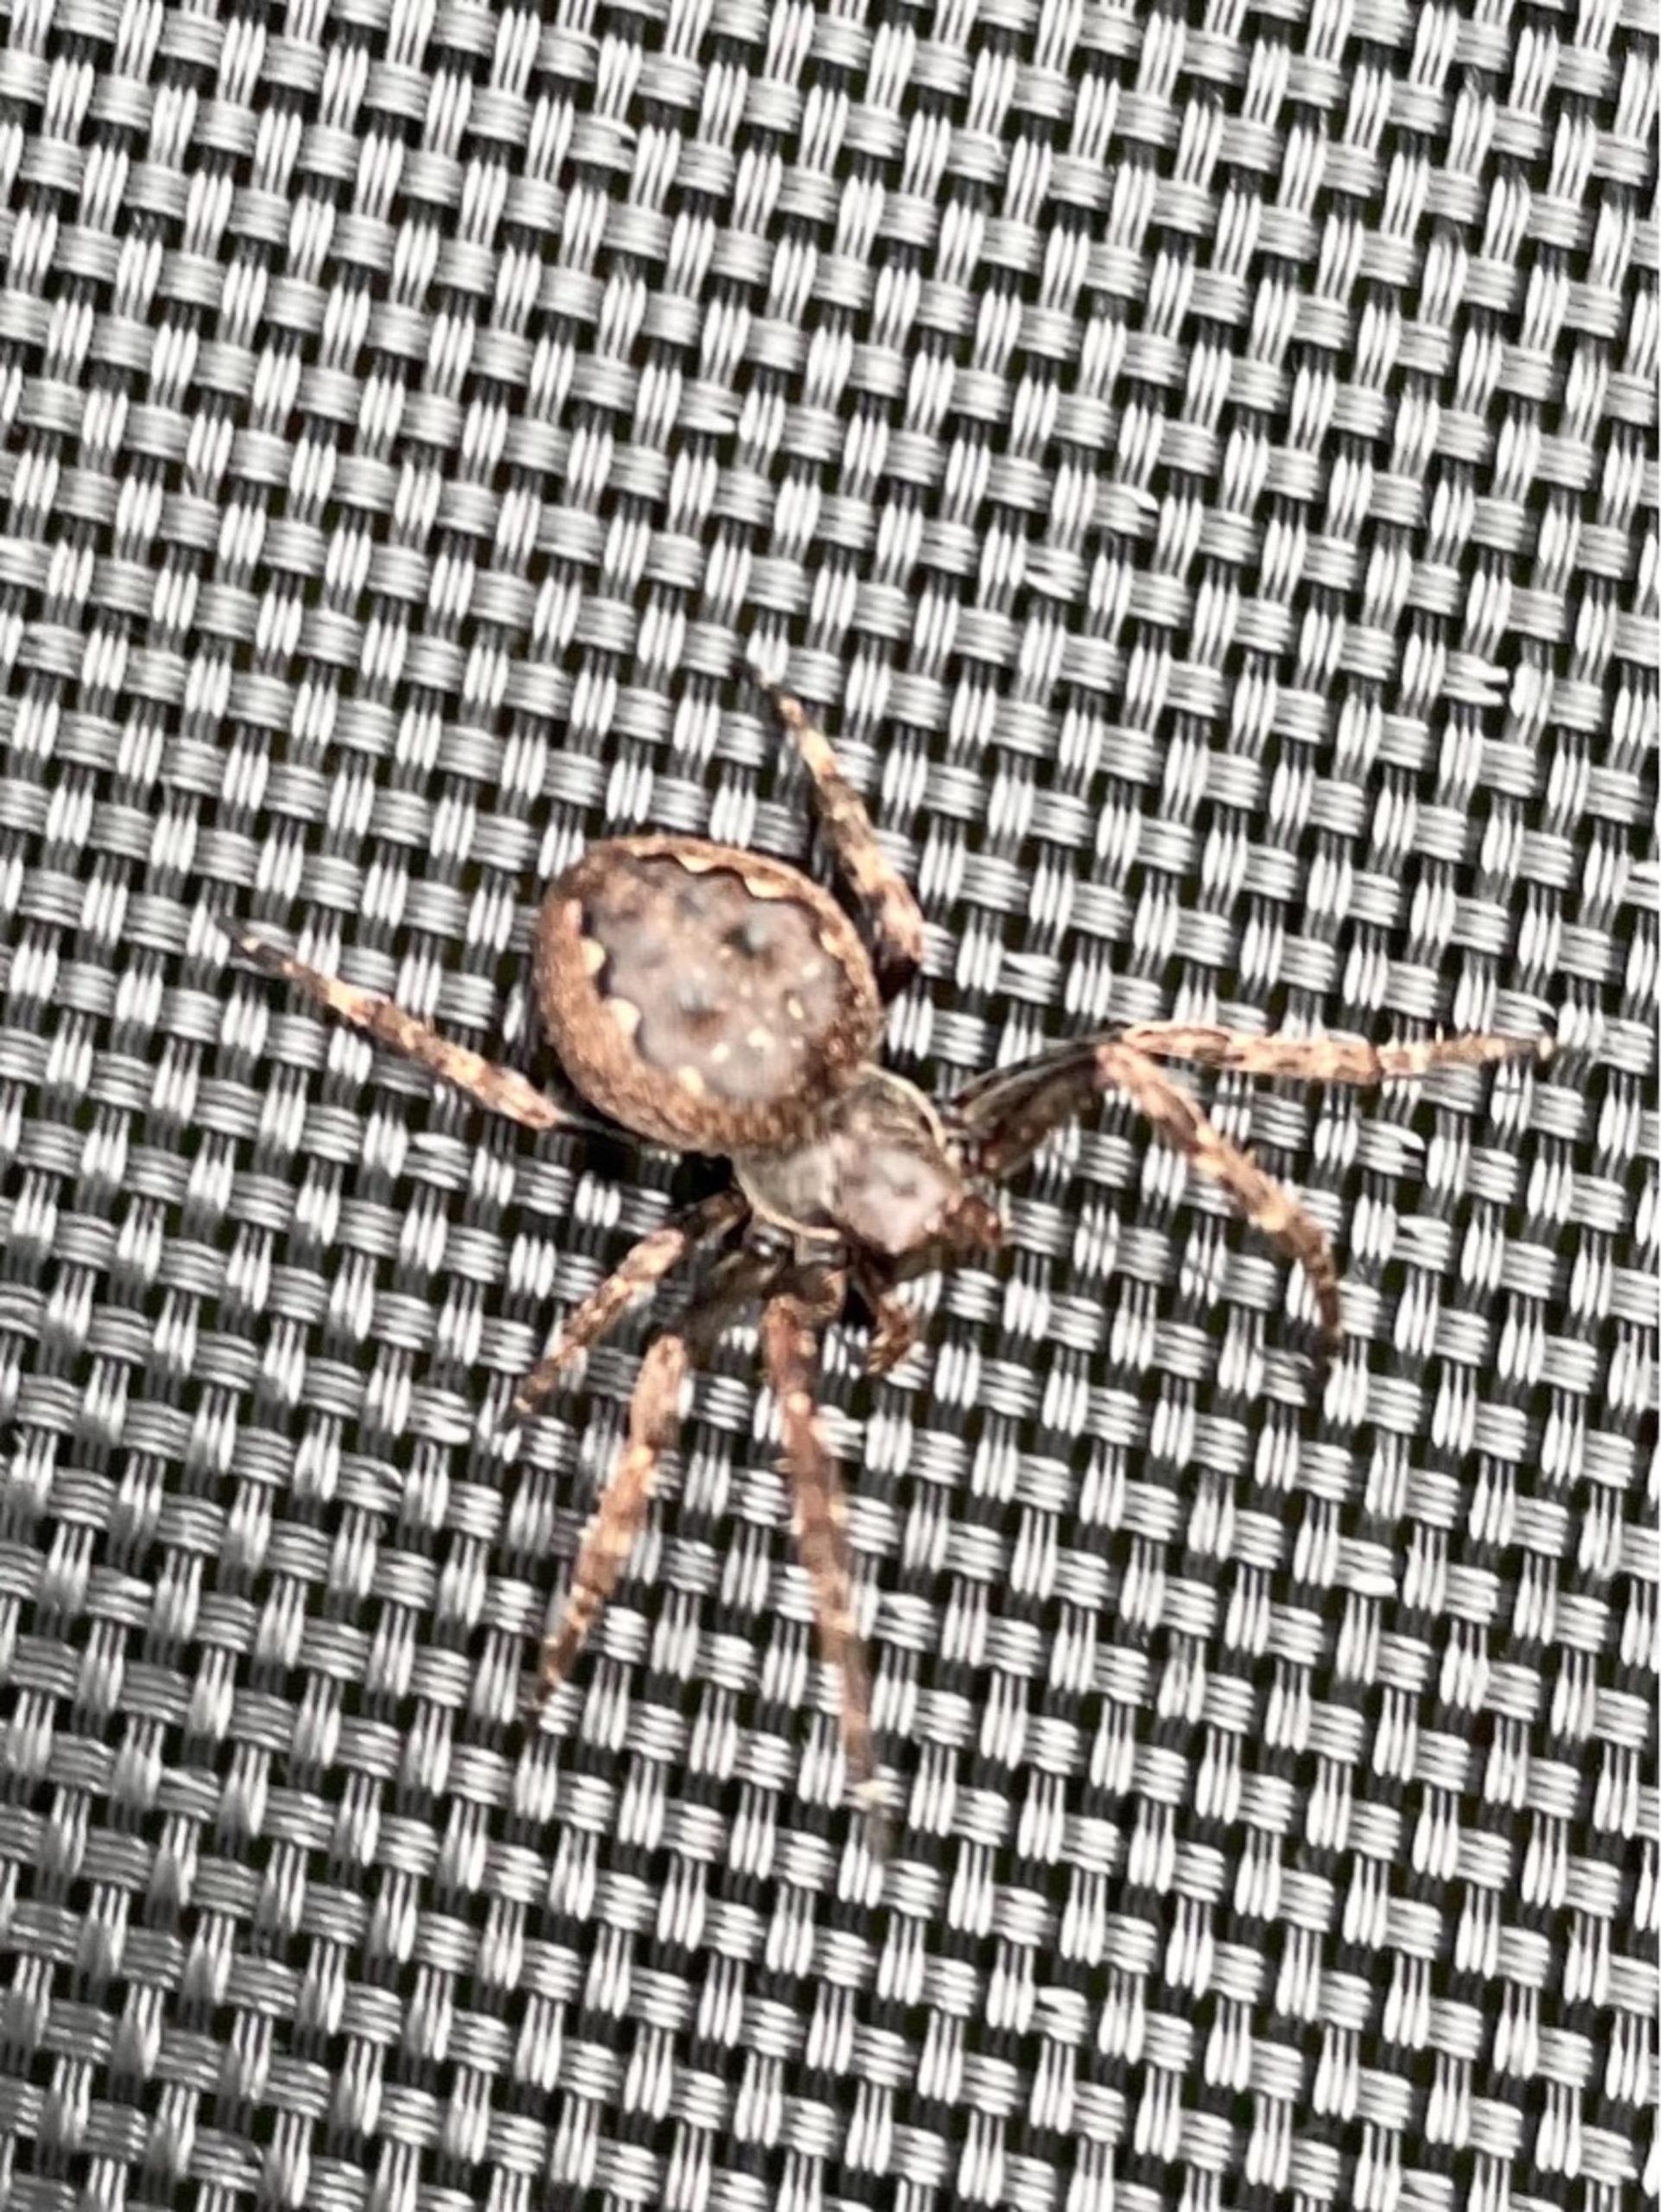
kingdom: Animalia
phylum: Arthropoda
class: Arachnida
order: Araneae
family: Araneidae
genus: Nuctenea
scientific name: Nuctenea umbratica
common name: Flad hjulspinder
